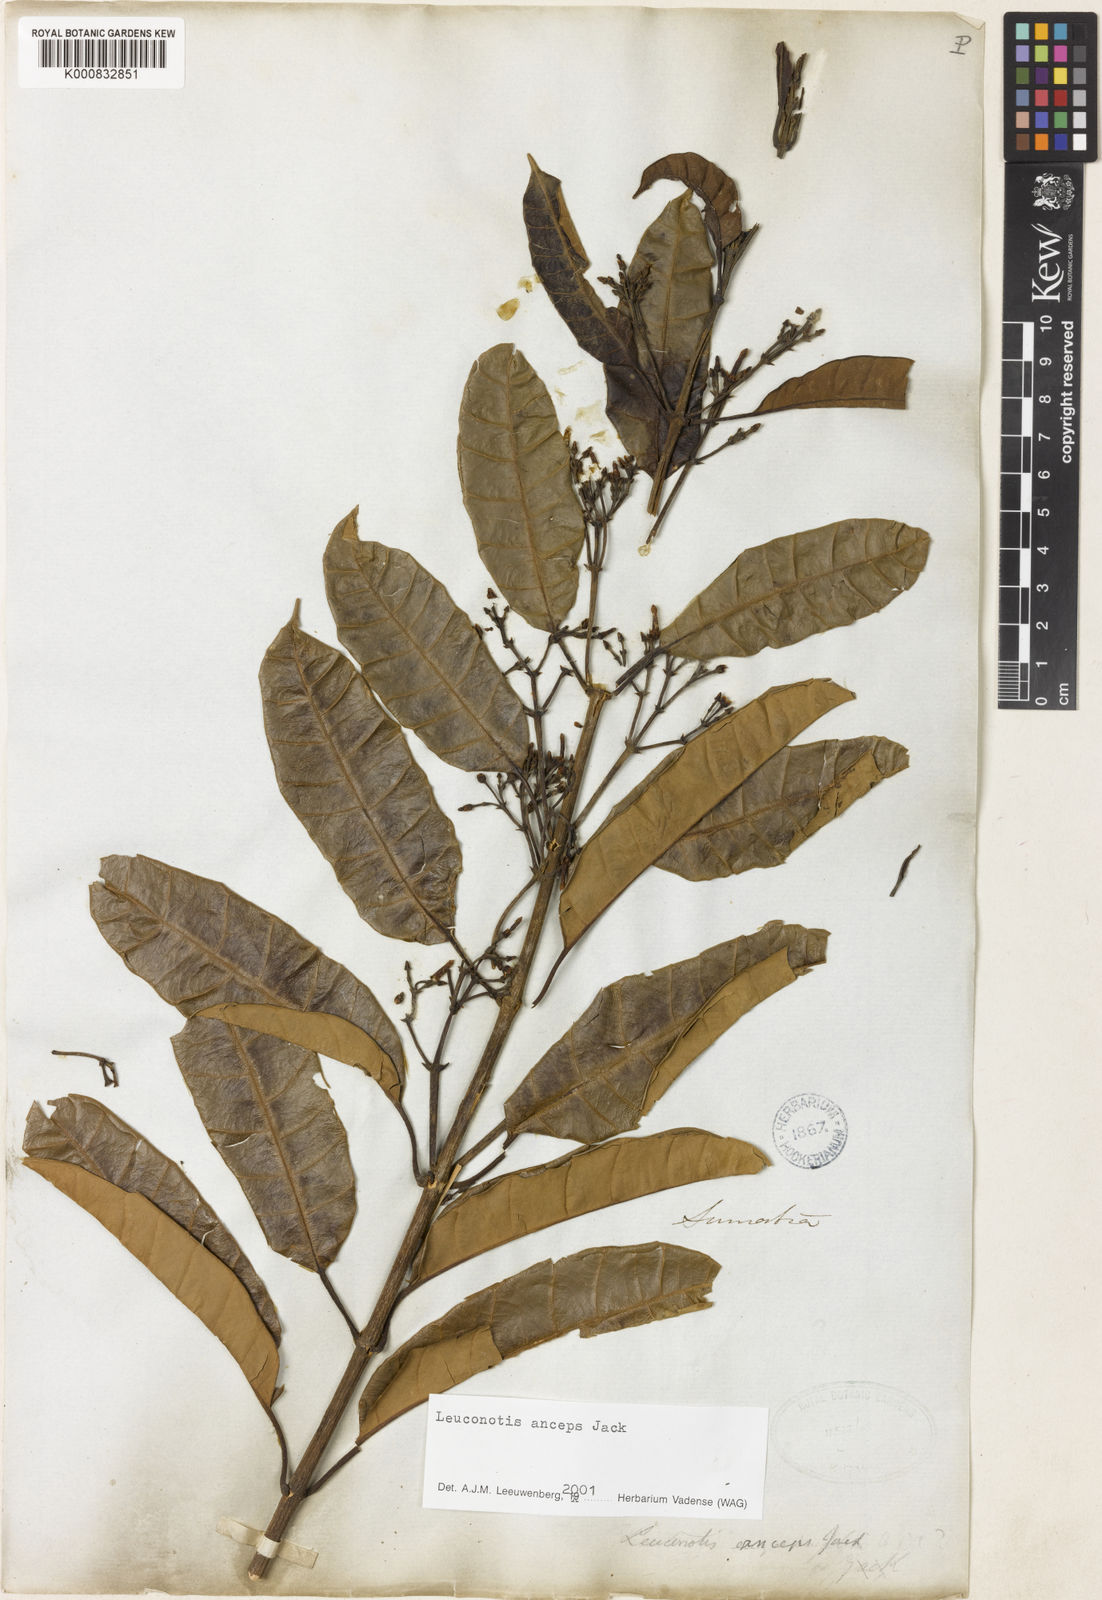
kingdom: Plantae
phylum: Tracheophyta
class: Magnoliopsida
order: Gentianales
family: Apocynaceae
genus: Leuconotis
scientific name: Leuconotis anceps
